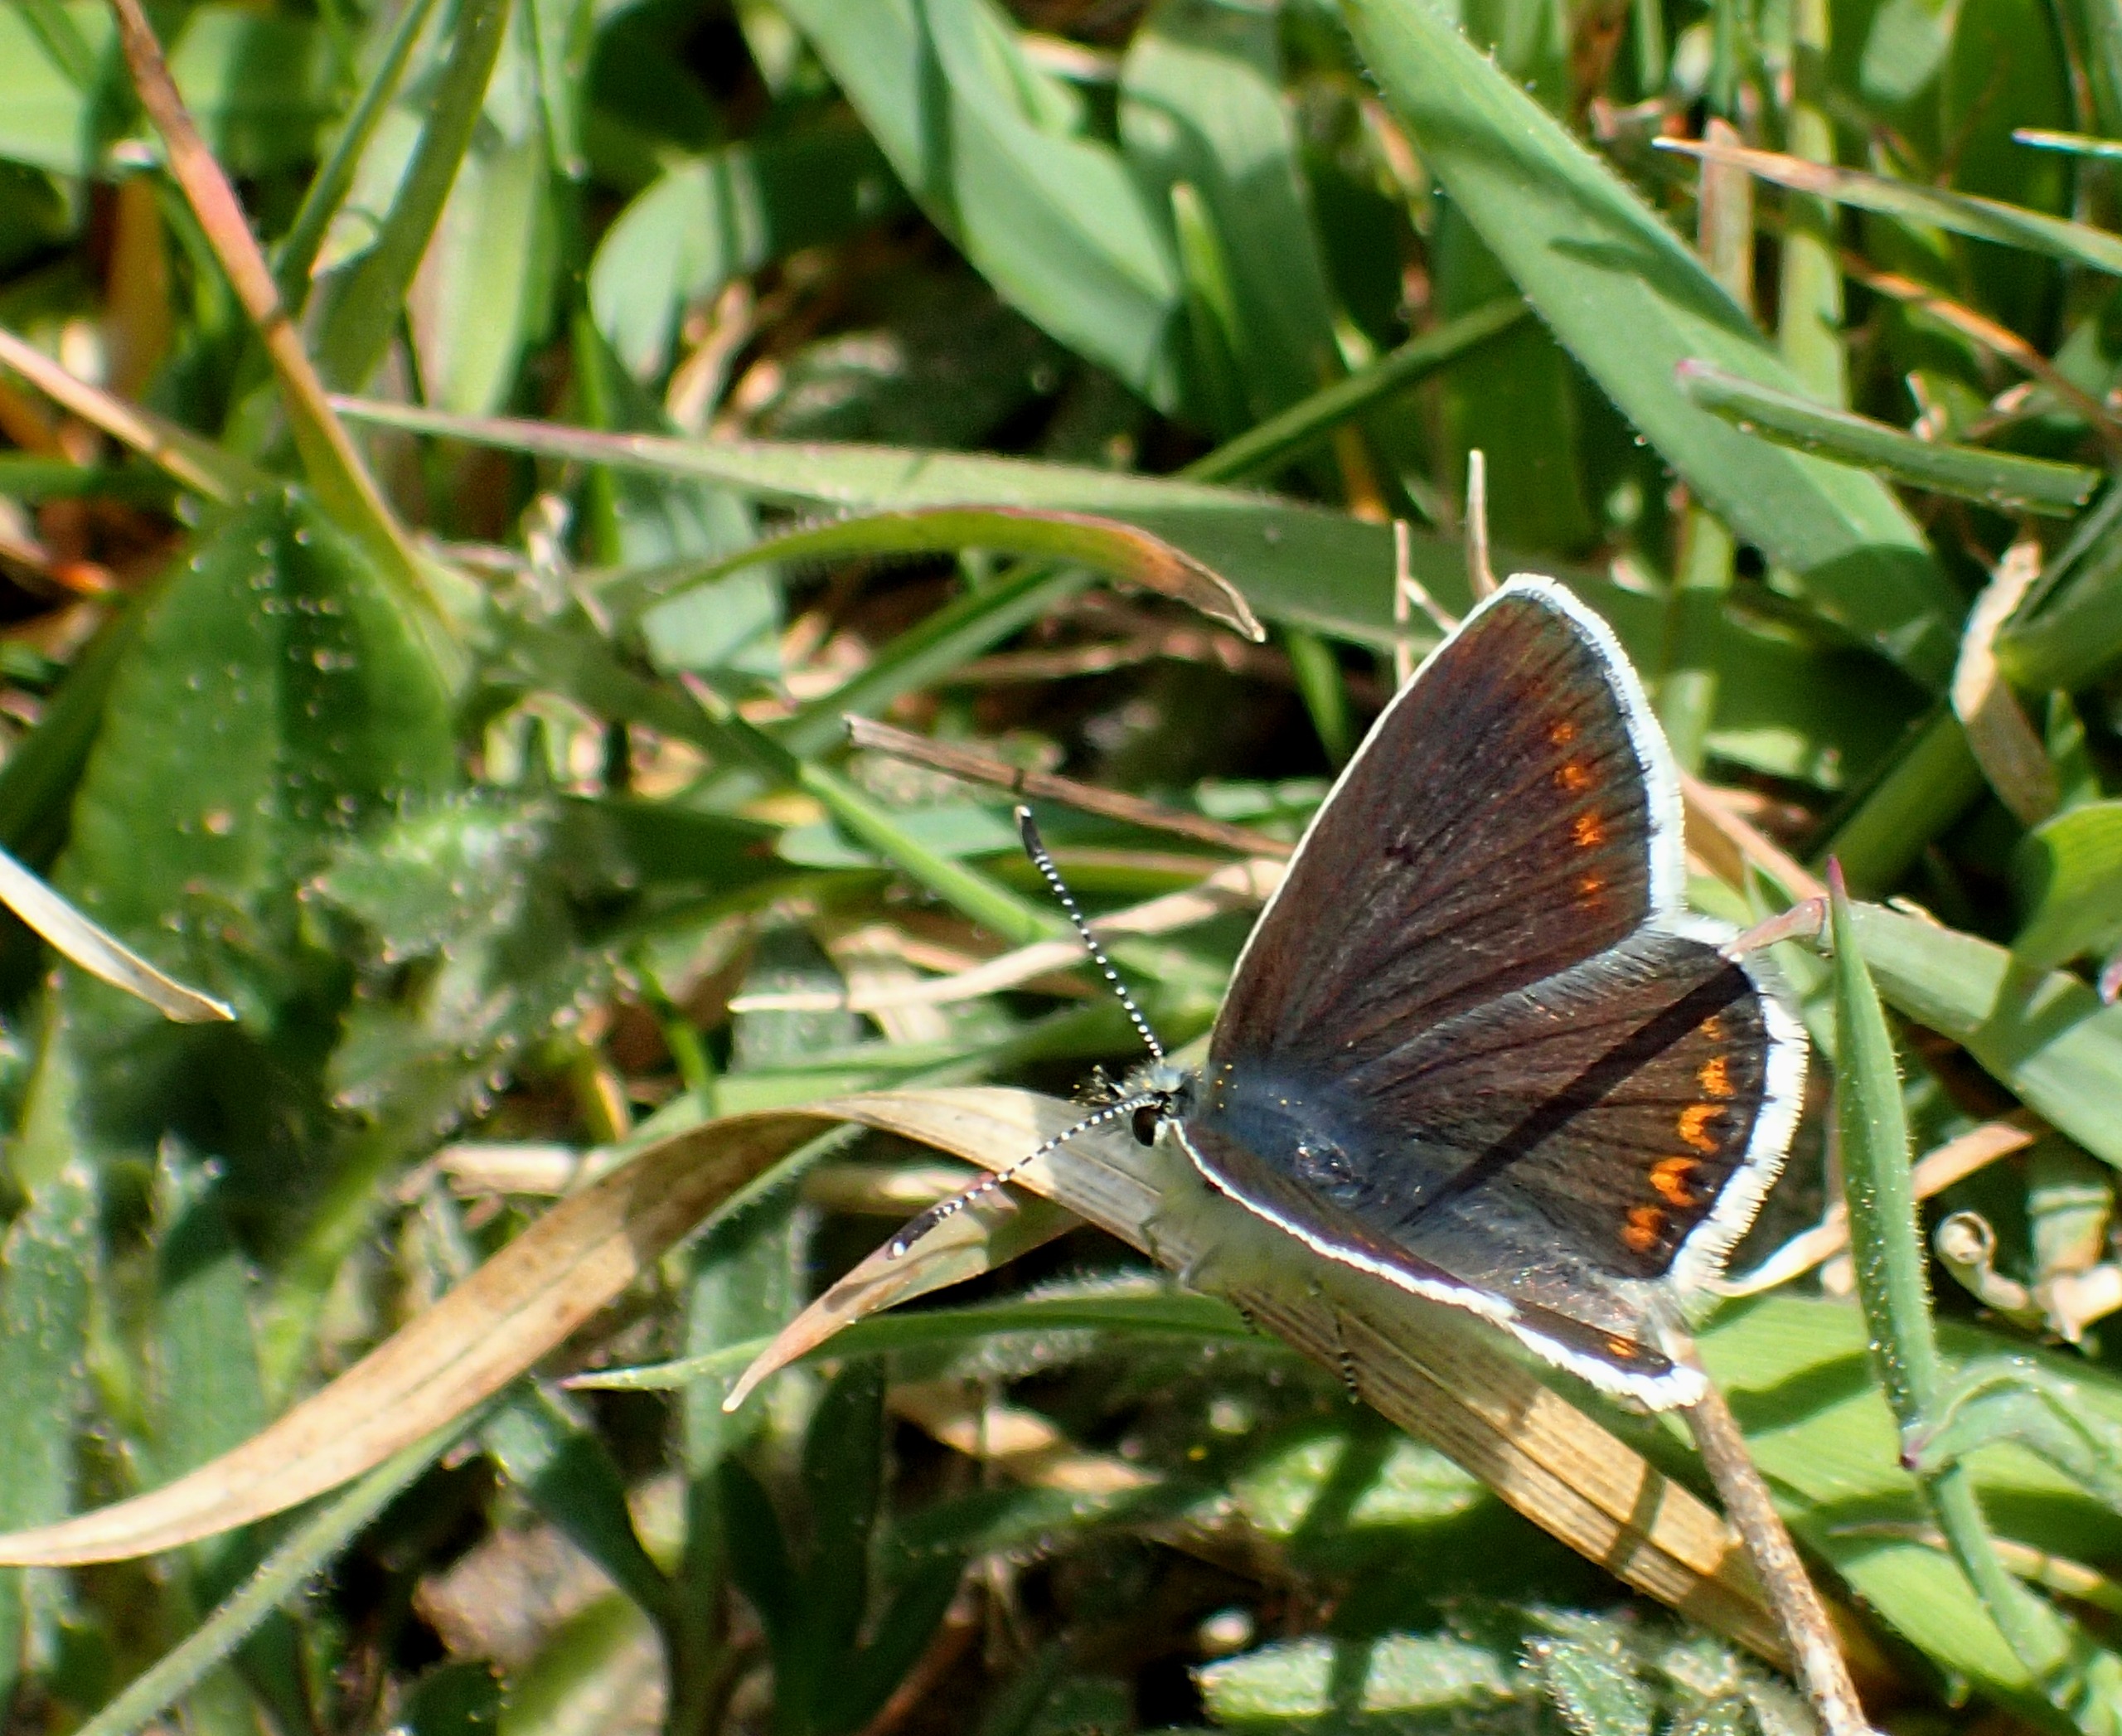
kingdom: Animalia
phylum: Arthropoda
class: Insecta
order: Lepidoptera
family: Lycaenidae
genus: Aricia
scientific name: Aricia agestis
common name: Rødplettet blåfugl
